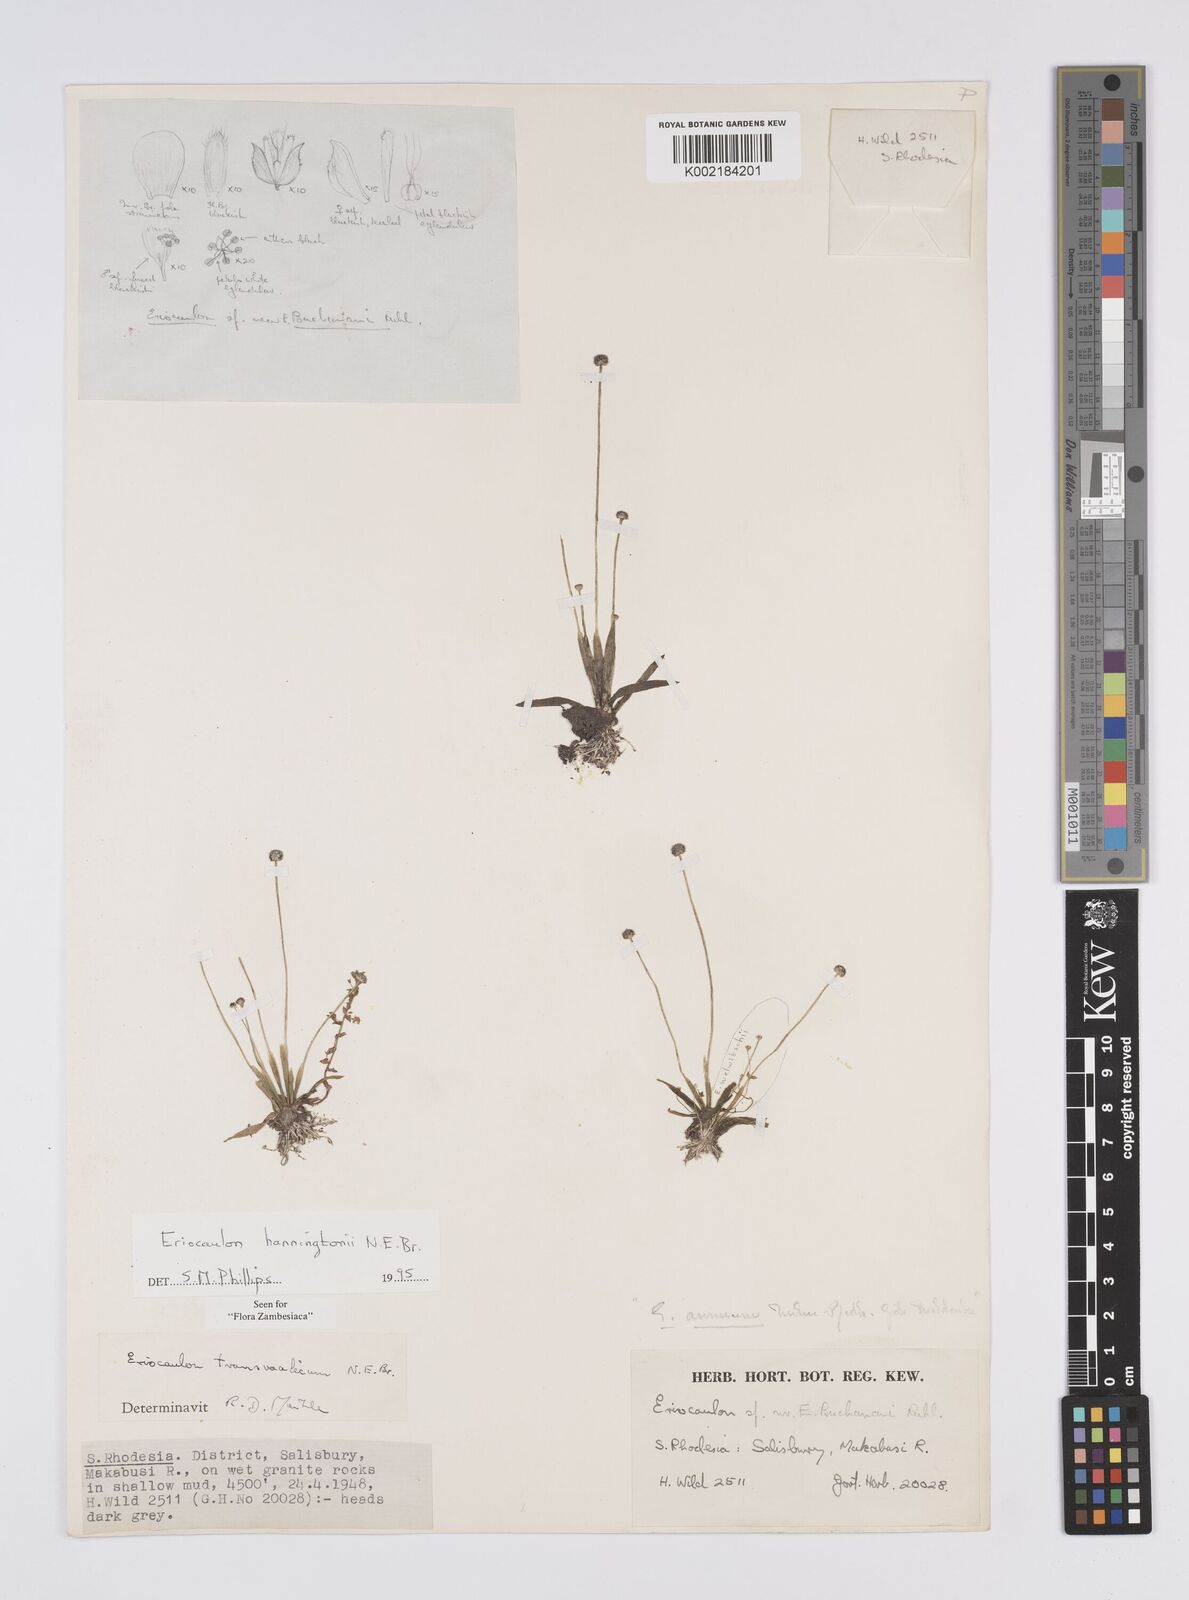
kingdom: Plantae
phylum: Tracheophyta
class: Liliopsida
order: Poales
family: Eriocaulaceae
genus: Eriocaulon
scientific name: Eriocaulon transvaalicum
